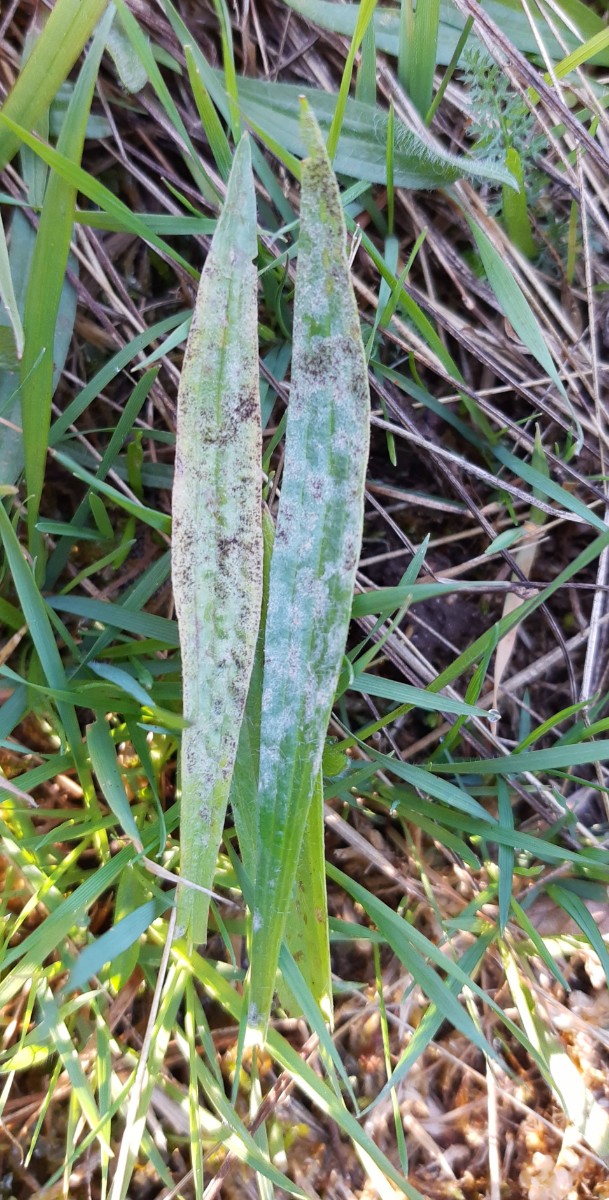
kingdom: Fungi
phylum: Ascomycota
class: Leotiomycetes
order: Helotiales
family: Erysiphaceae
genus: Podosphaera
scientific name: Podosphaera plantaginis
